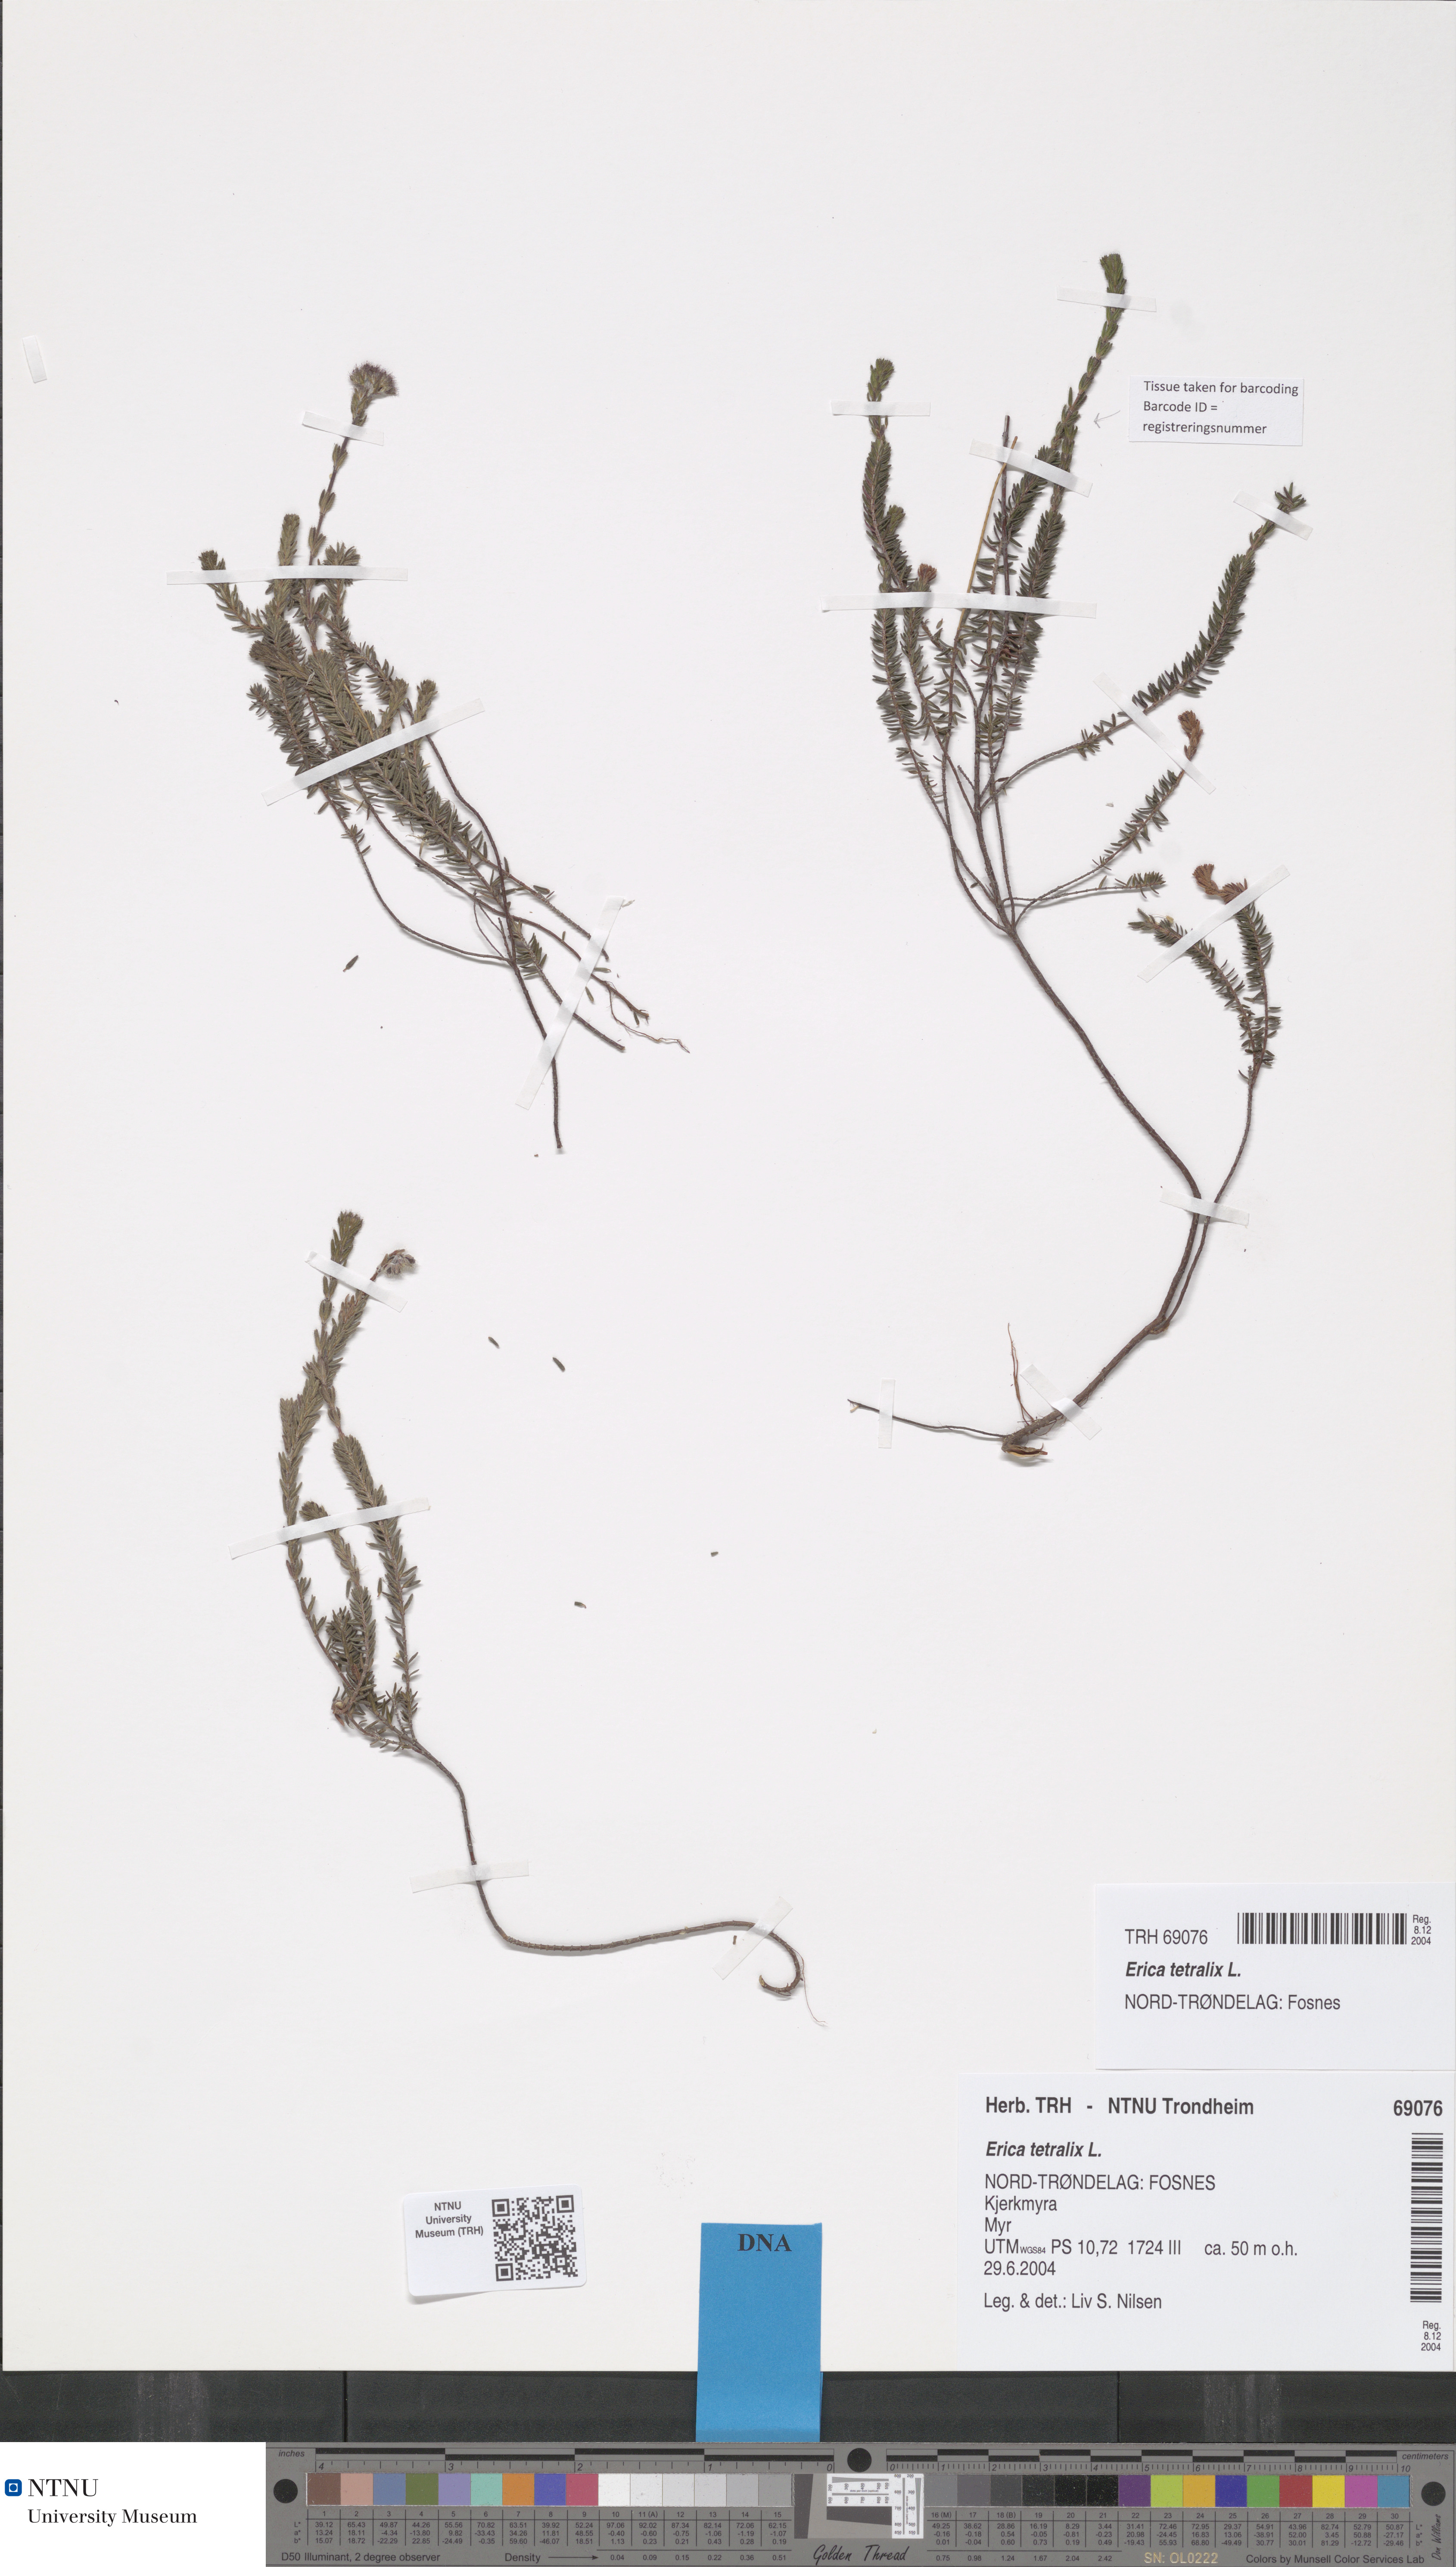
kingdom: Plantae
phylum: Tracheophyta
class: Magnoliopsida
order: Ericales
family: Ericaceae
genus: Erica
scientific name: Erica tetralix
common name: Cross-leaved heath
